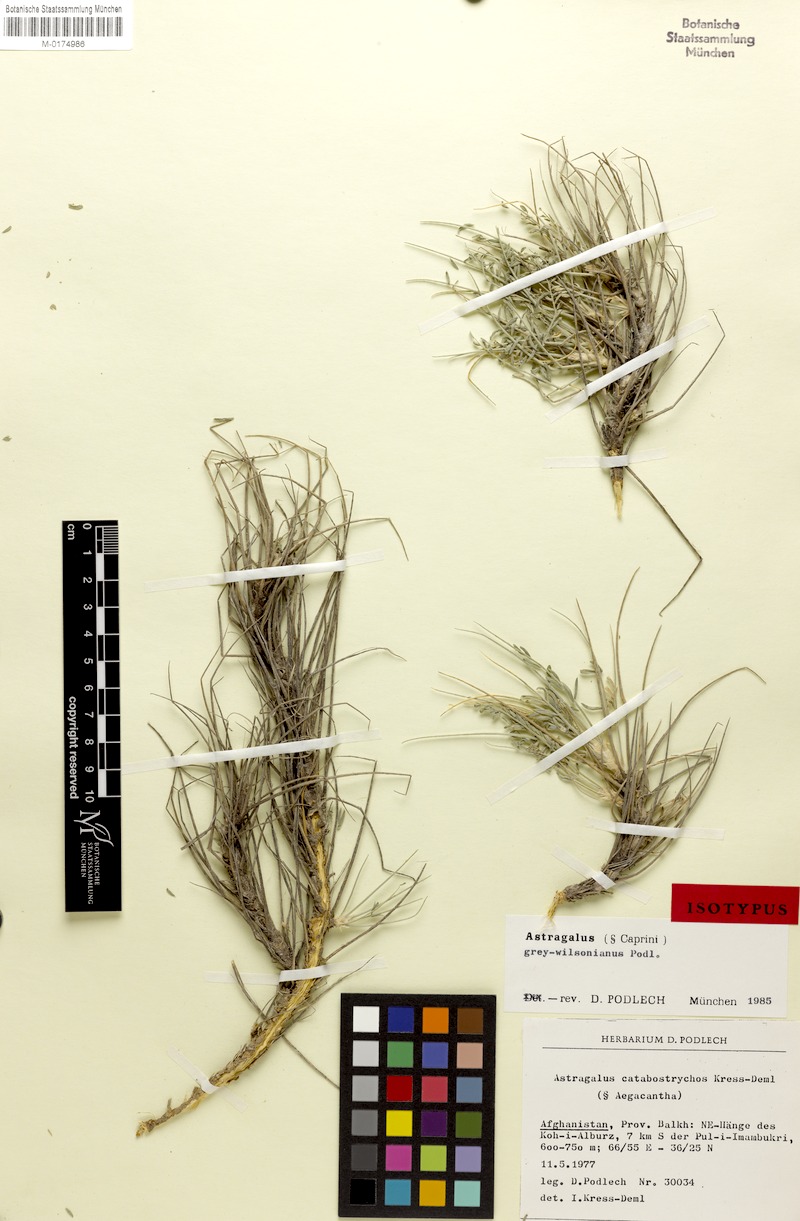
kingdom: Plantae
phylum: Tracheophyta
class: Magnoliopsida
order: Fabales
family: Fabaceae
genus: Astragalus
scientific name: Astragalus grey-wilsonianus
